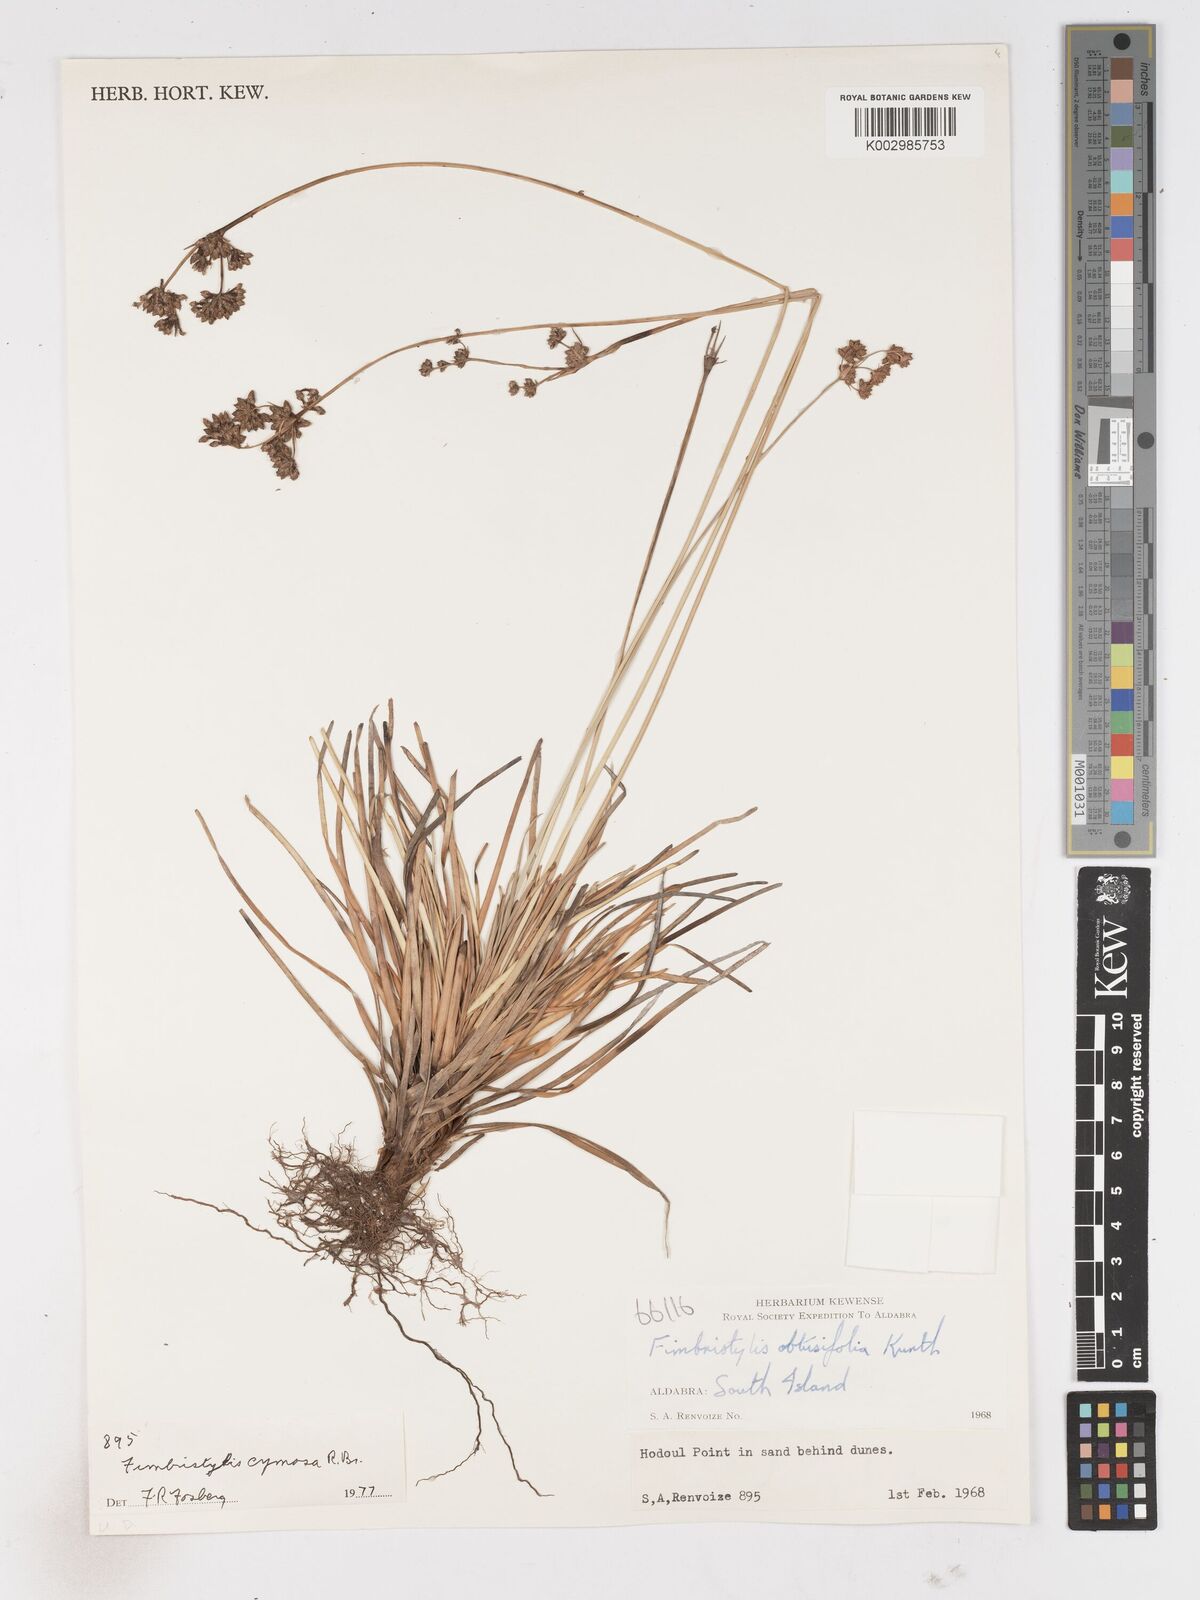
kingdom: Plantae
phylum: Tracheophyta
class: Liliopsida
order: Poales
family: Cyperaceae
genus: Fimbristylis
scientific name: Fimbristylis cymosa
